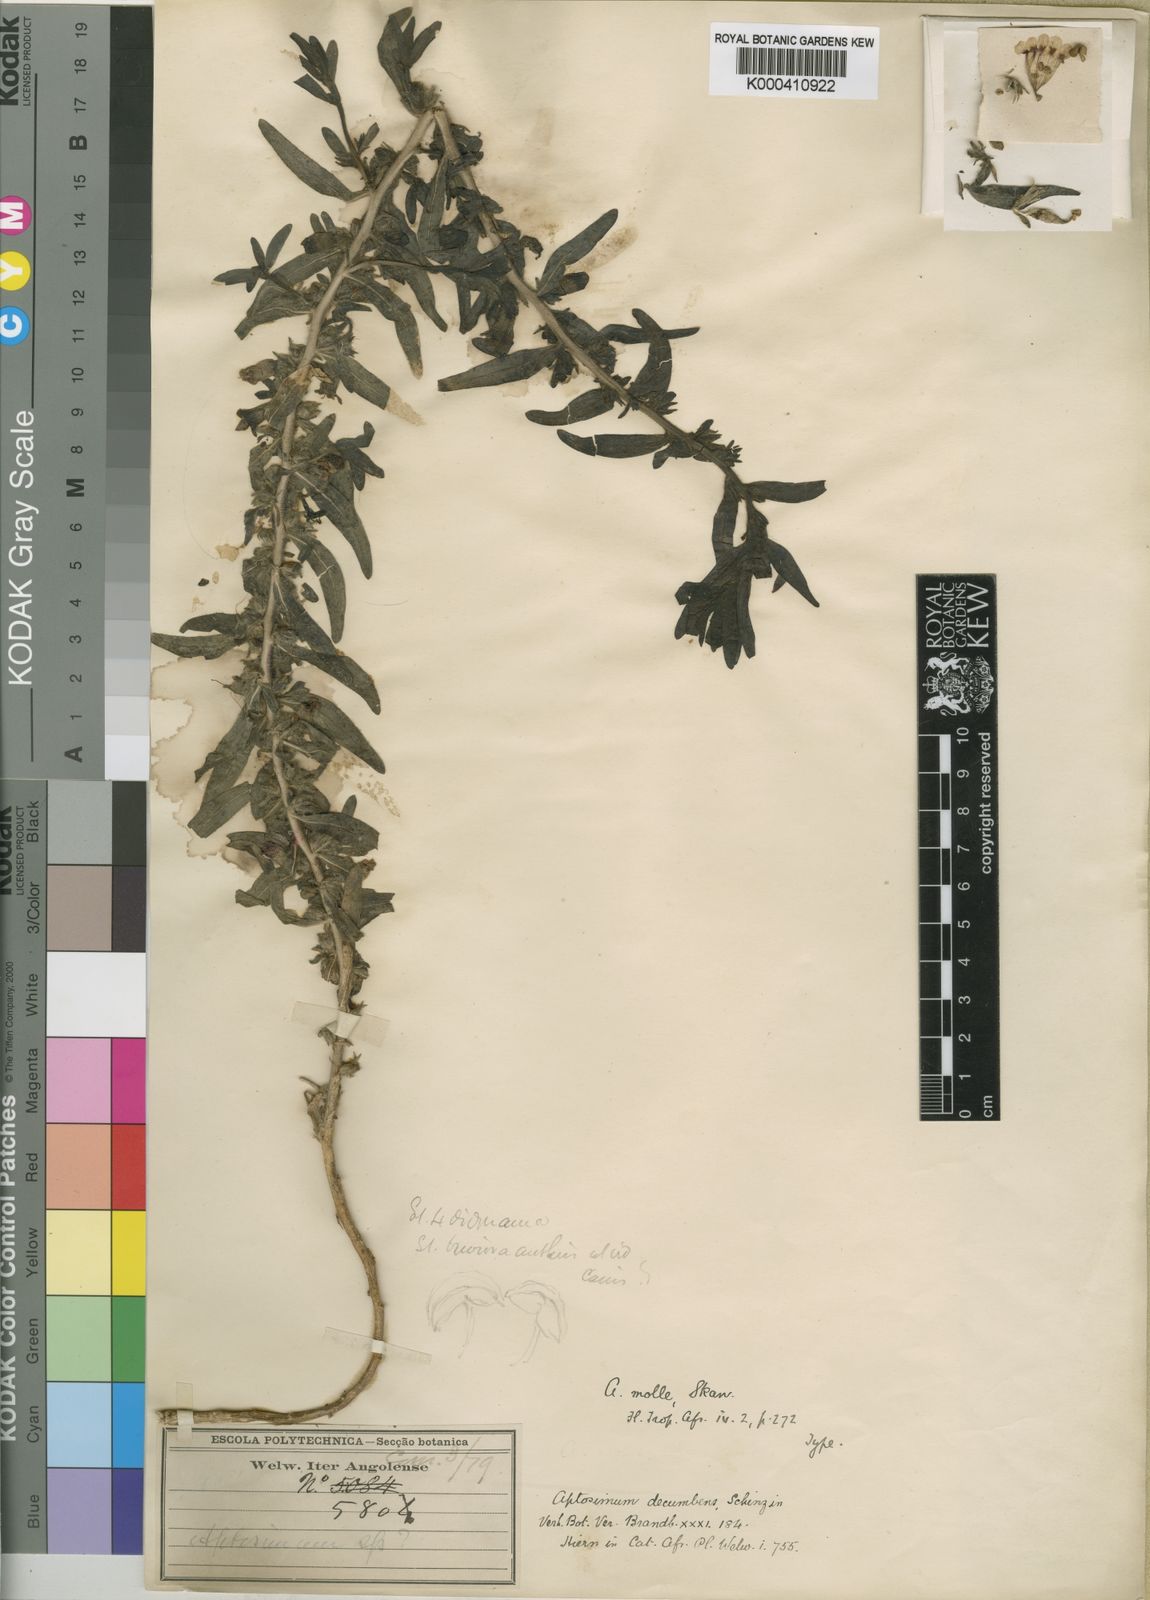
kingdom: Plantae
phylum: Tracheophyta
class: Magnoliopsida
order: Lamiales
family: Scrophulariaceae
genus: Aptosimum
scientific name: Aptosimum molle
